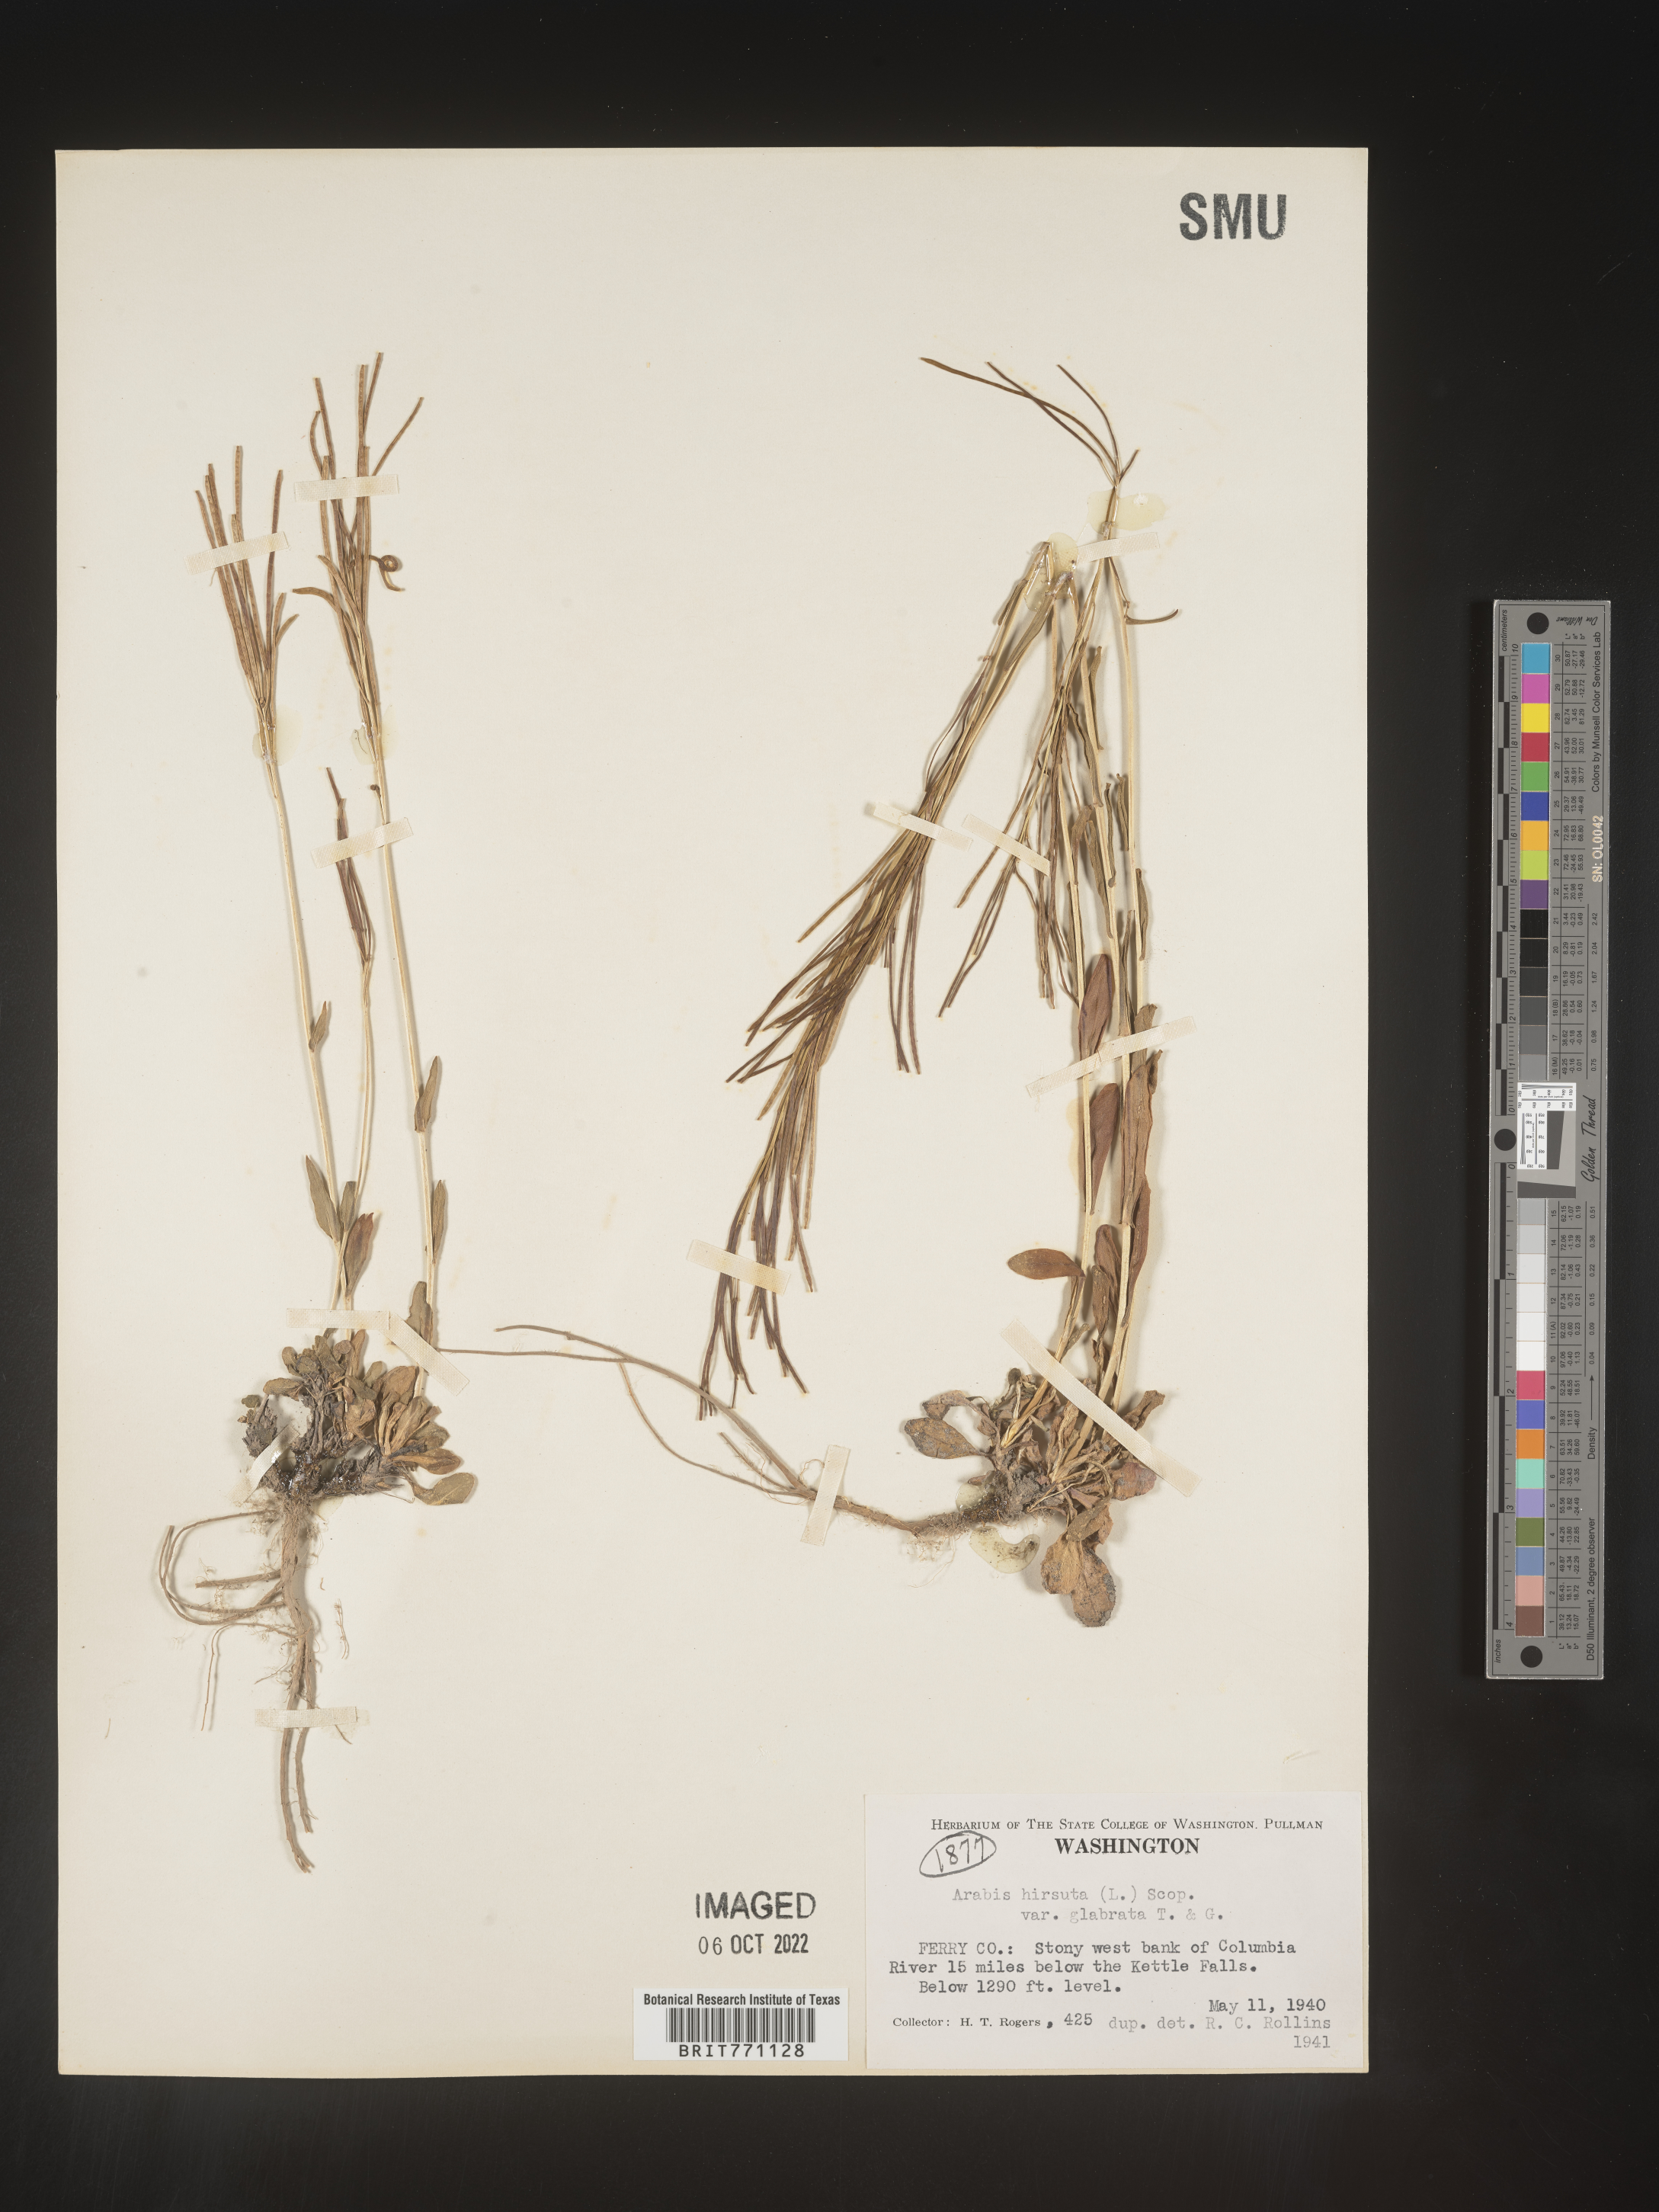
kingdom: Plantae
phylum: Tracheophyta
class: Magnoliopsida
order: Brassicales
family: Brassicaceae
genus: Arabis
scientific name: Arabis hirsuta
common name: Hairy rock-cress
